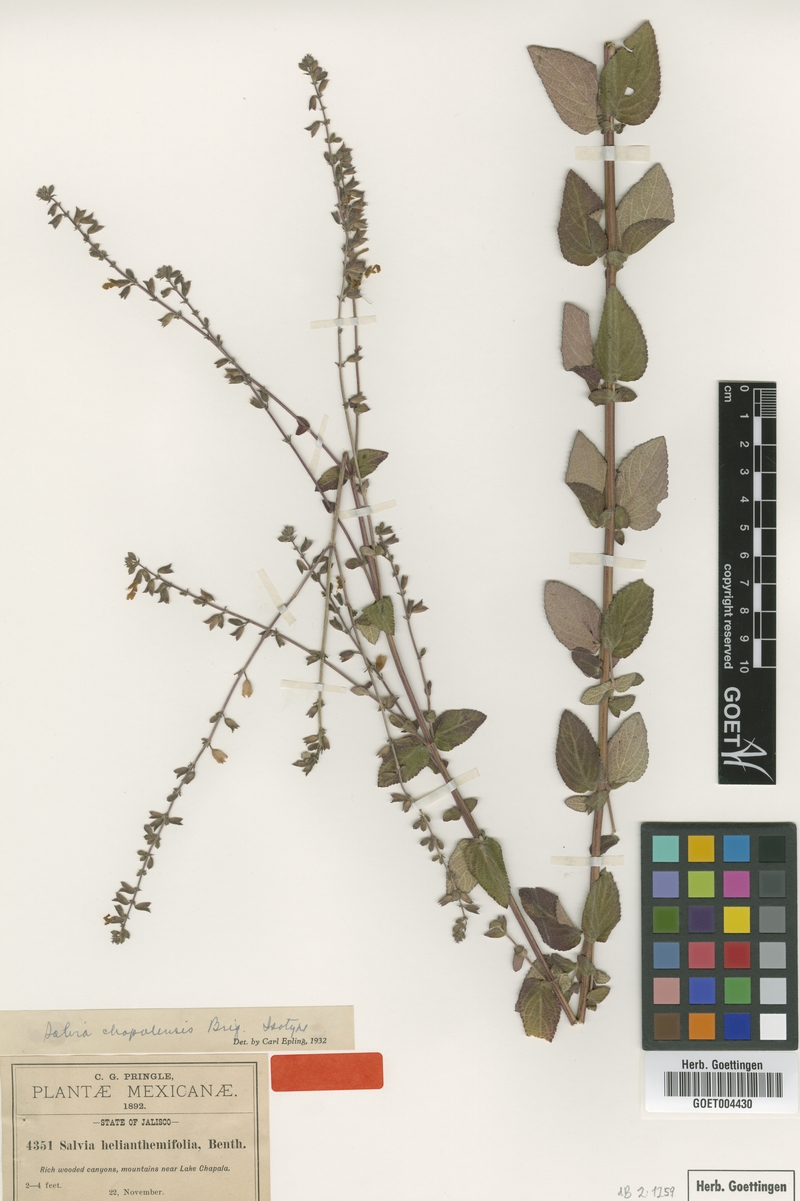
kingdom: Plantae
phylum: Tracheophyta
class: Magnoliopsida
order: Lamiales
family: Lamiaceae
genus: Salvia
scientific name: Salvia chapalensis
